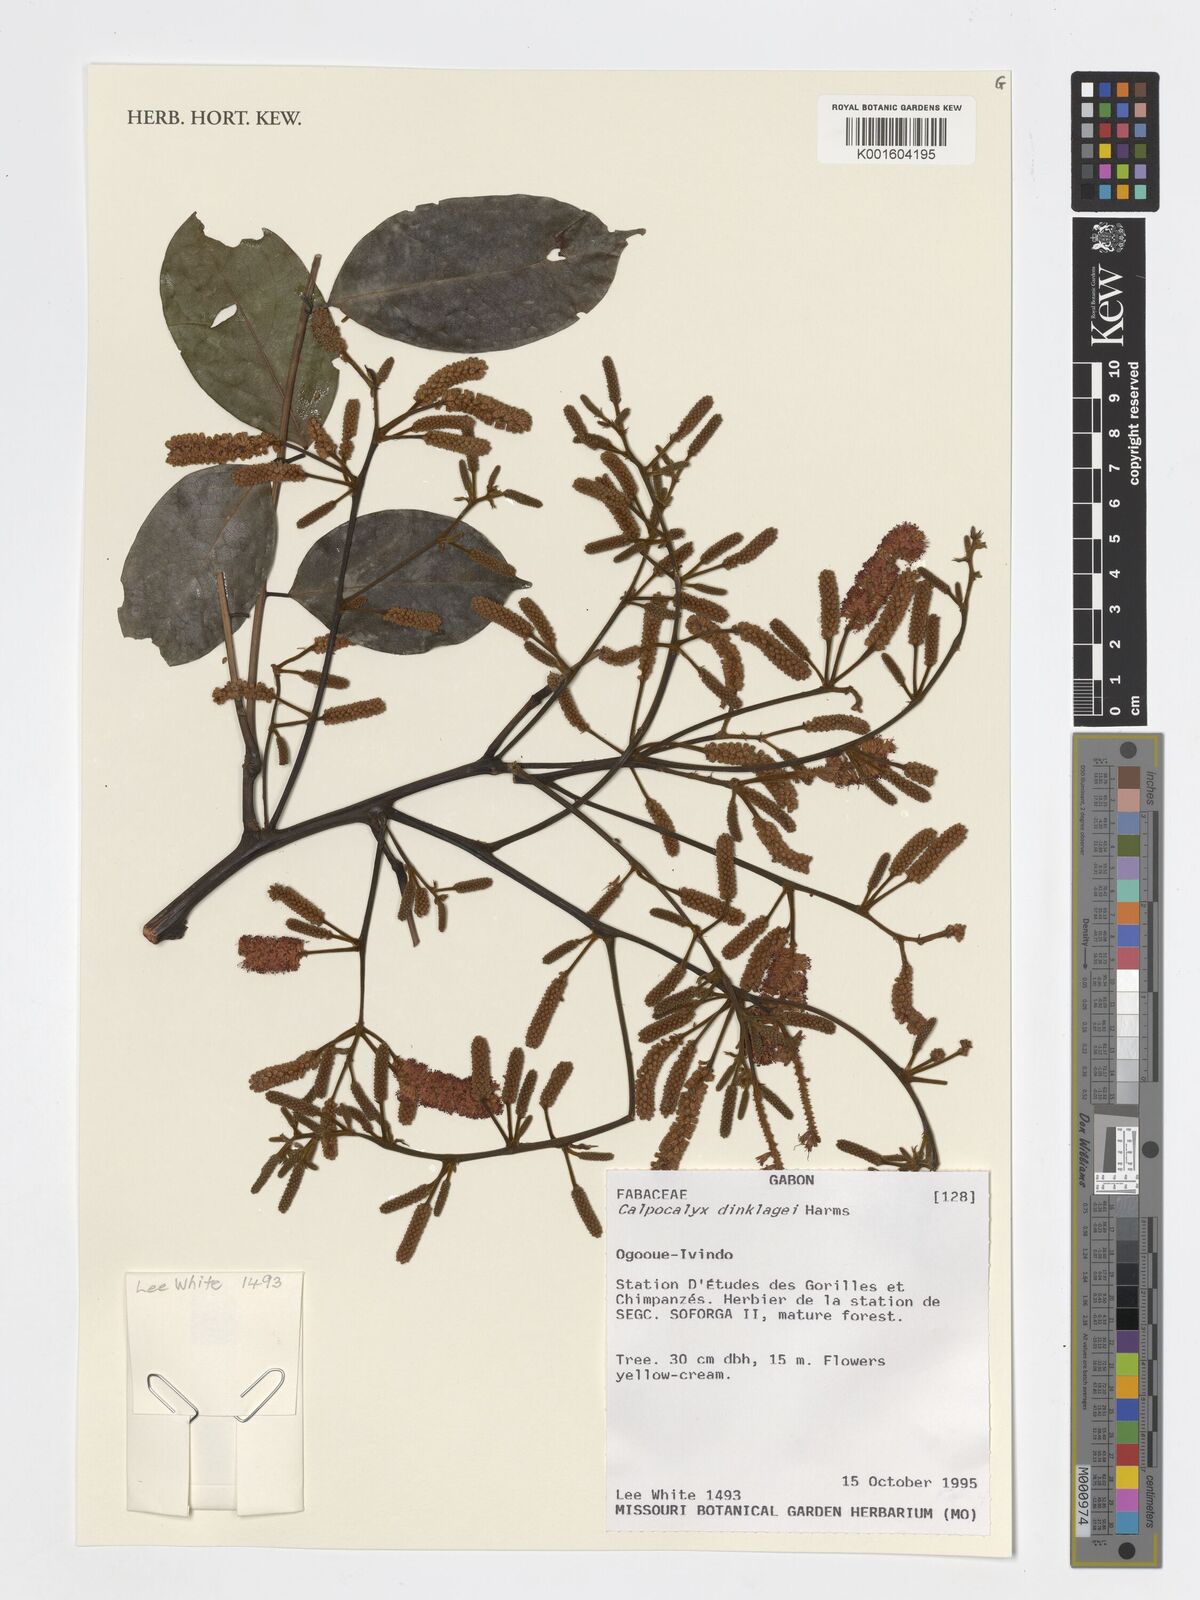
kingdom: Plantae
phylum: Tracheophyta
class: Magnoliopsida
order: Fabales
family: Fabaceae
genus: Calpocalyx
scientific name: Calpocalyx dinklagei
